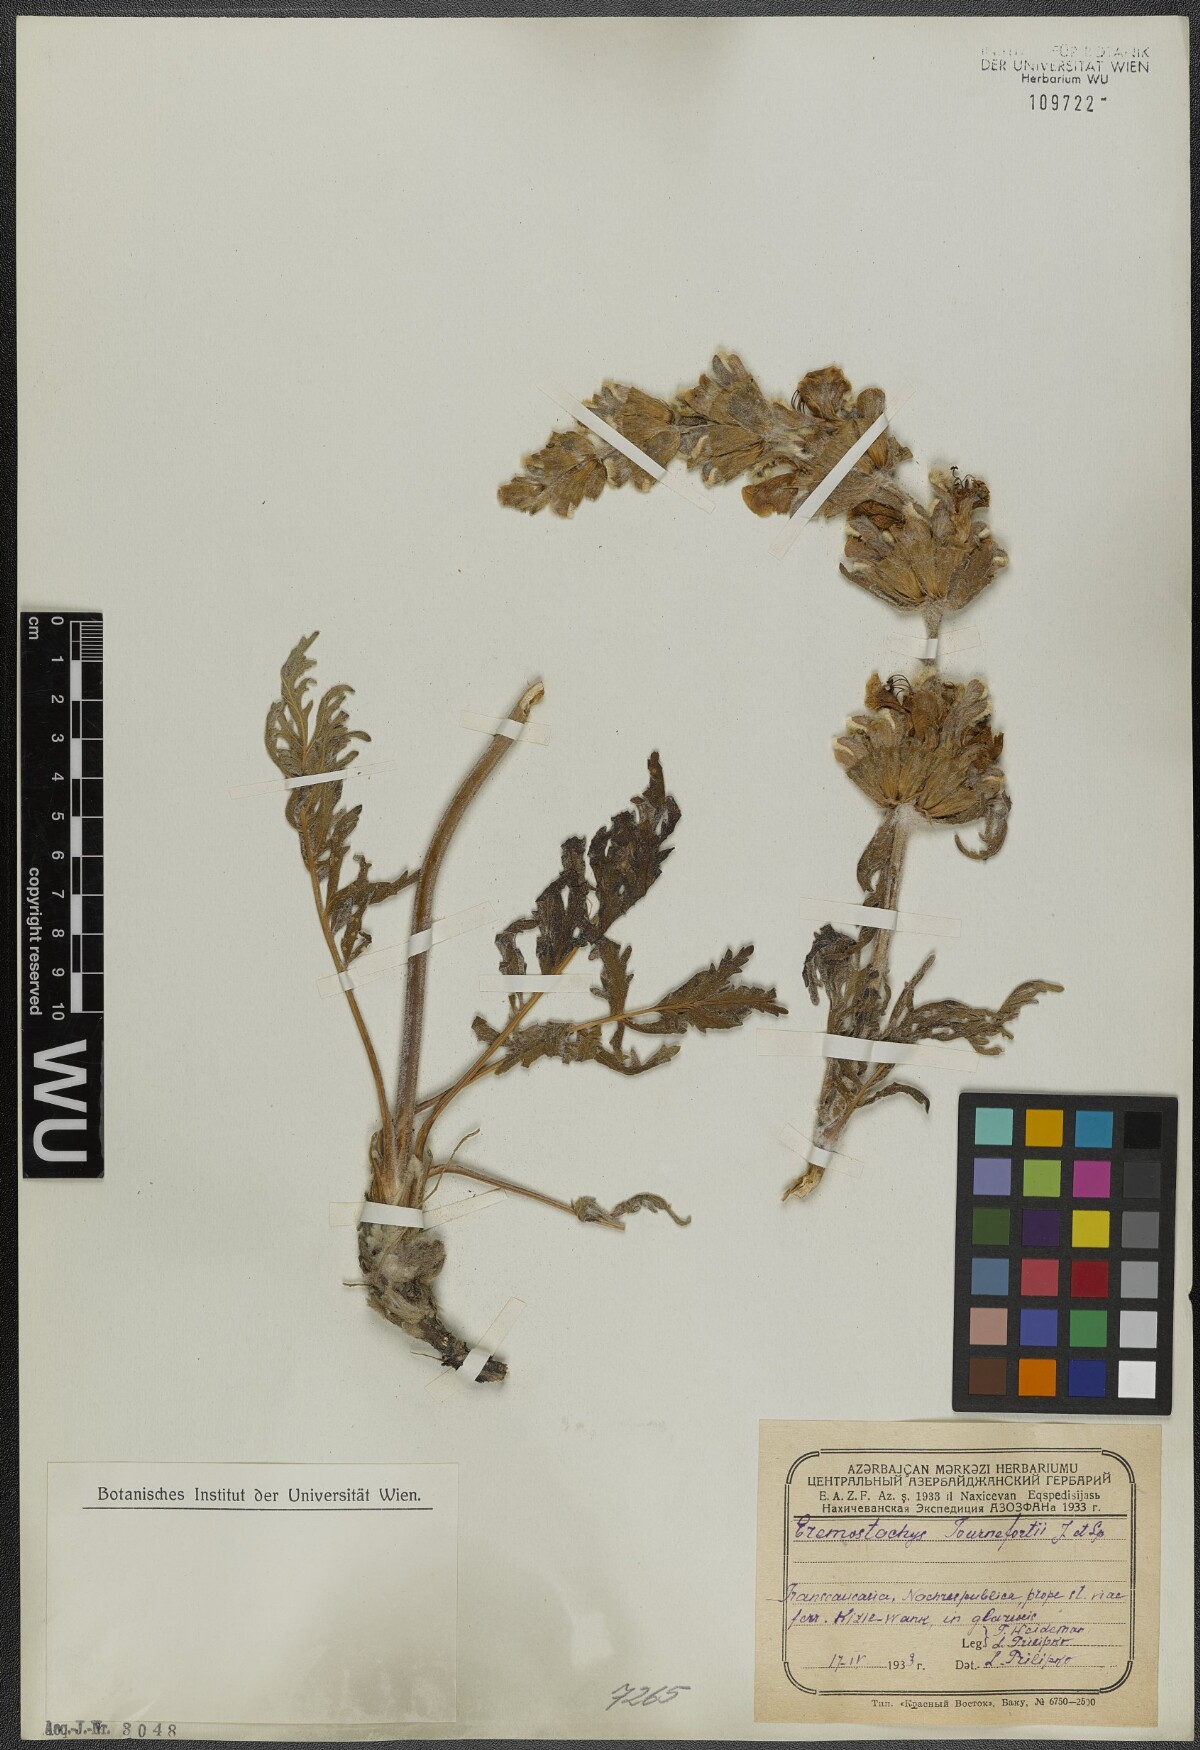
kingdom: Plantae
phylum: Tracheophyta
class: Magnoliopsida
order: Lamiales
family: Lamiaceae
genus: Phlomoides
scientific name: Phlomoides tournefortii
